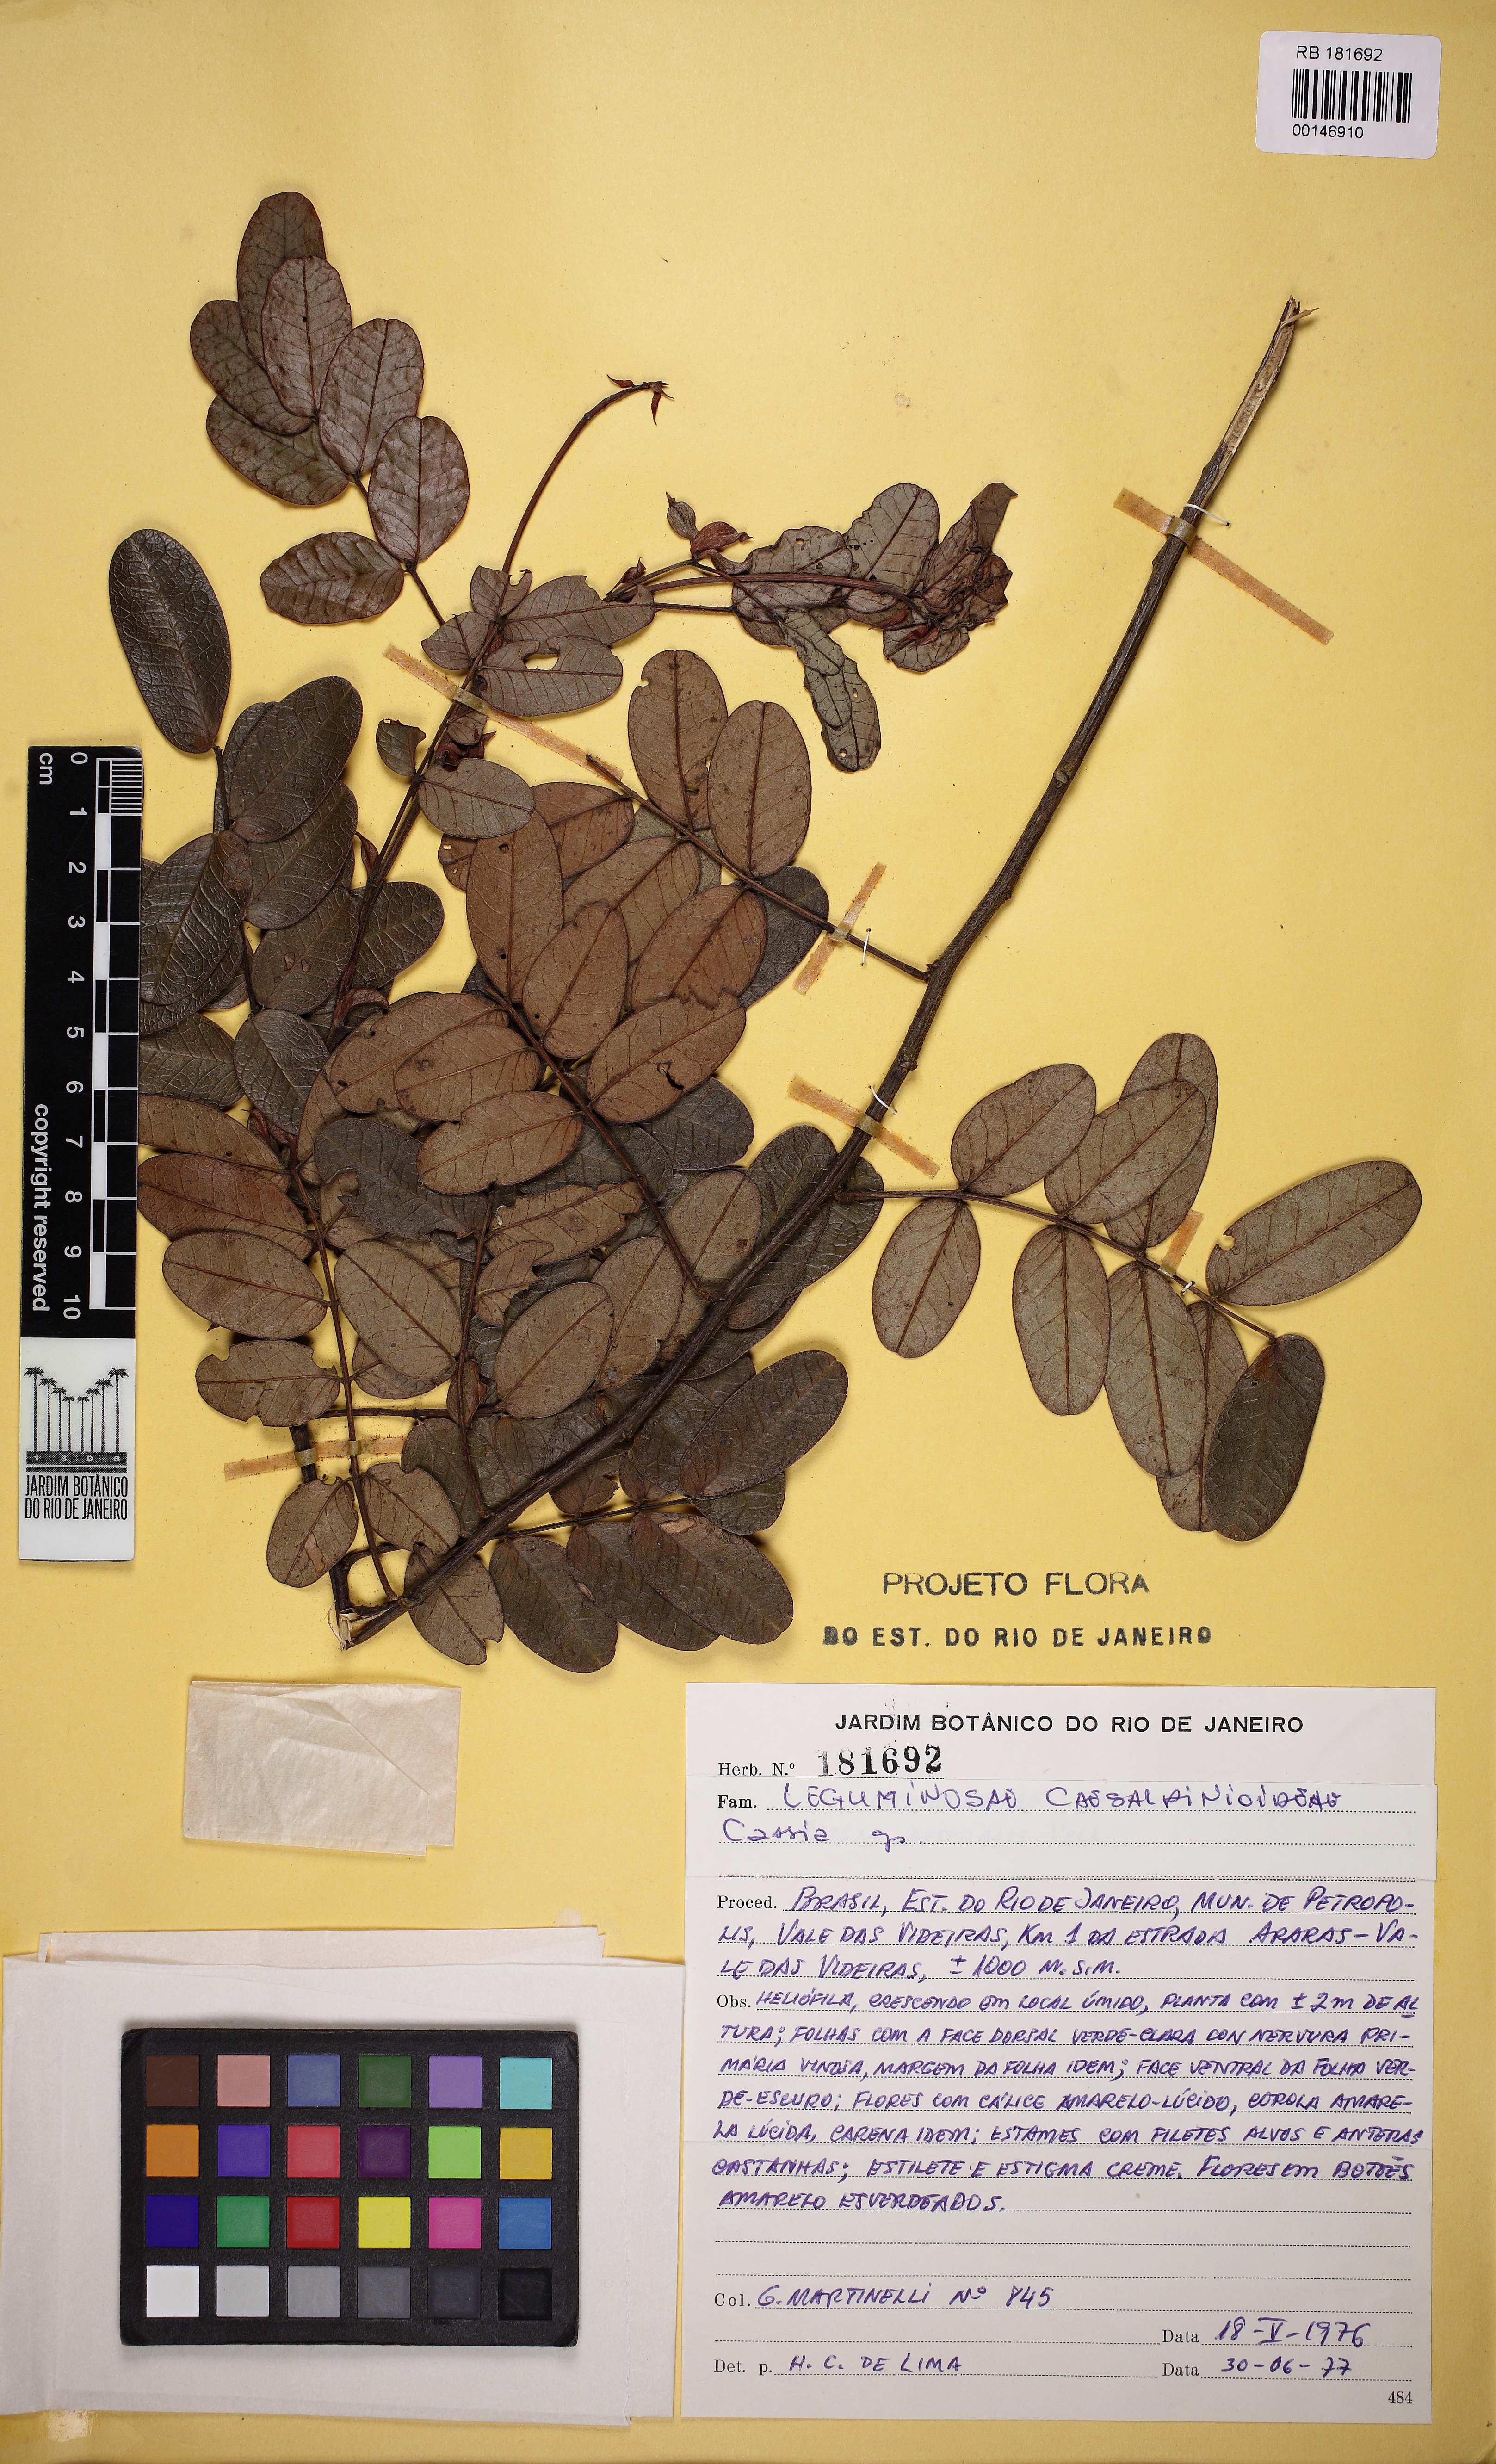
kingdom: Plantae
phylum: Tracheophyta
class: Magnoliopsida
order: Fabales
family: Fabaceae
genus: Senna
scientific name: Senna organensis
